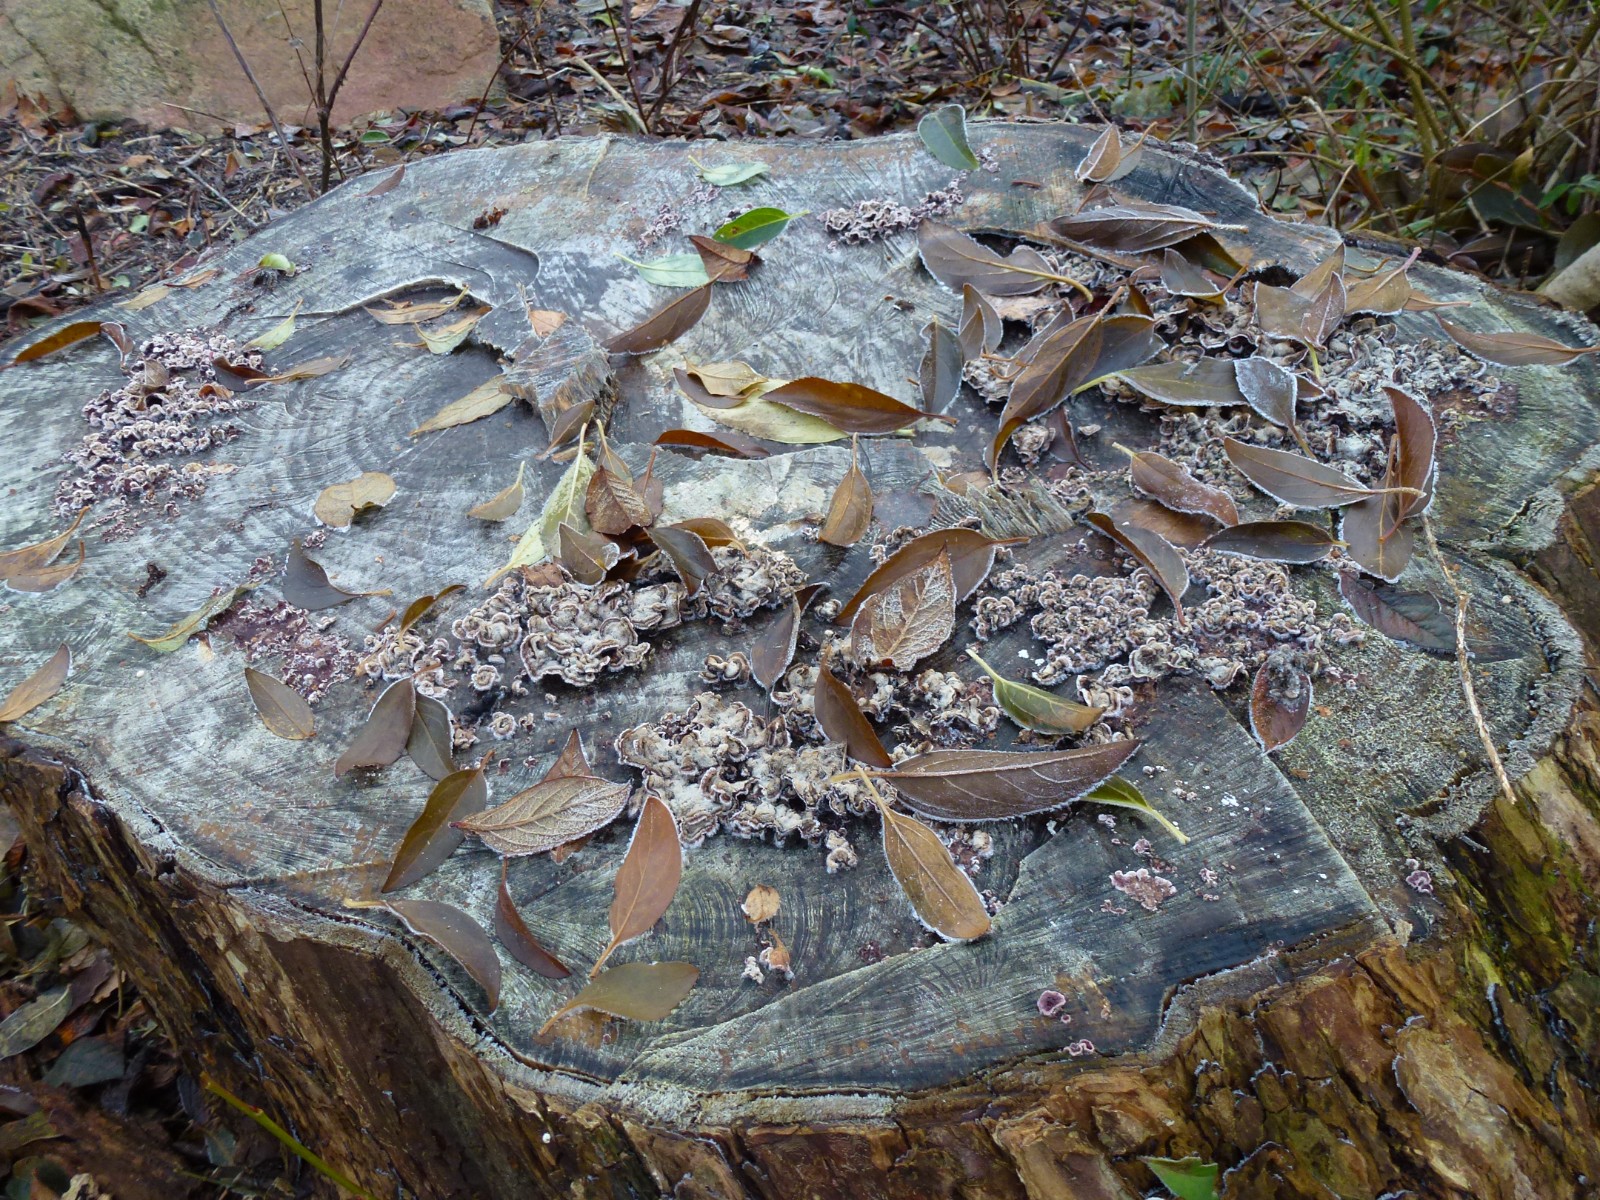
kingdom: Fungi
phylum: Basidiomycota
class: Agaricomycetes
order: Agaricales
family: Cyphellaceae
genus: Chondrostereum
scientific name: Chondrostereum purpureum
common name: purpurlædersvamp
